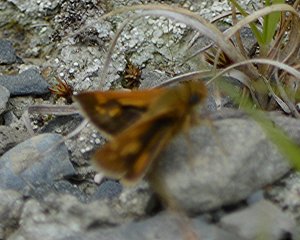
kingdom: Animalia
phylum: Arthropoda
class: Insecta
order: Lepidoptera
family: Hesperiidae
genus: Polites
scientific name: Polites
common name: Long Dash Skipper
